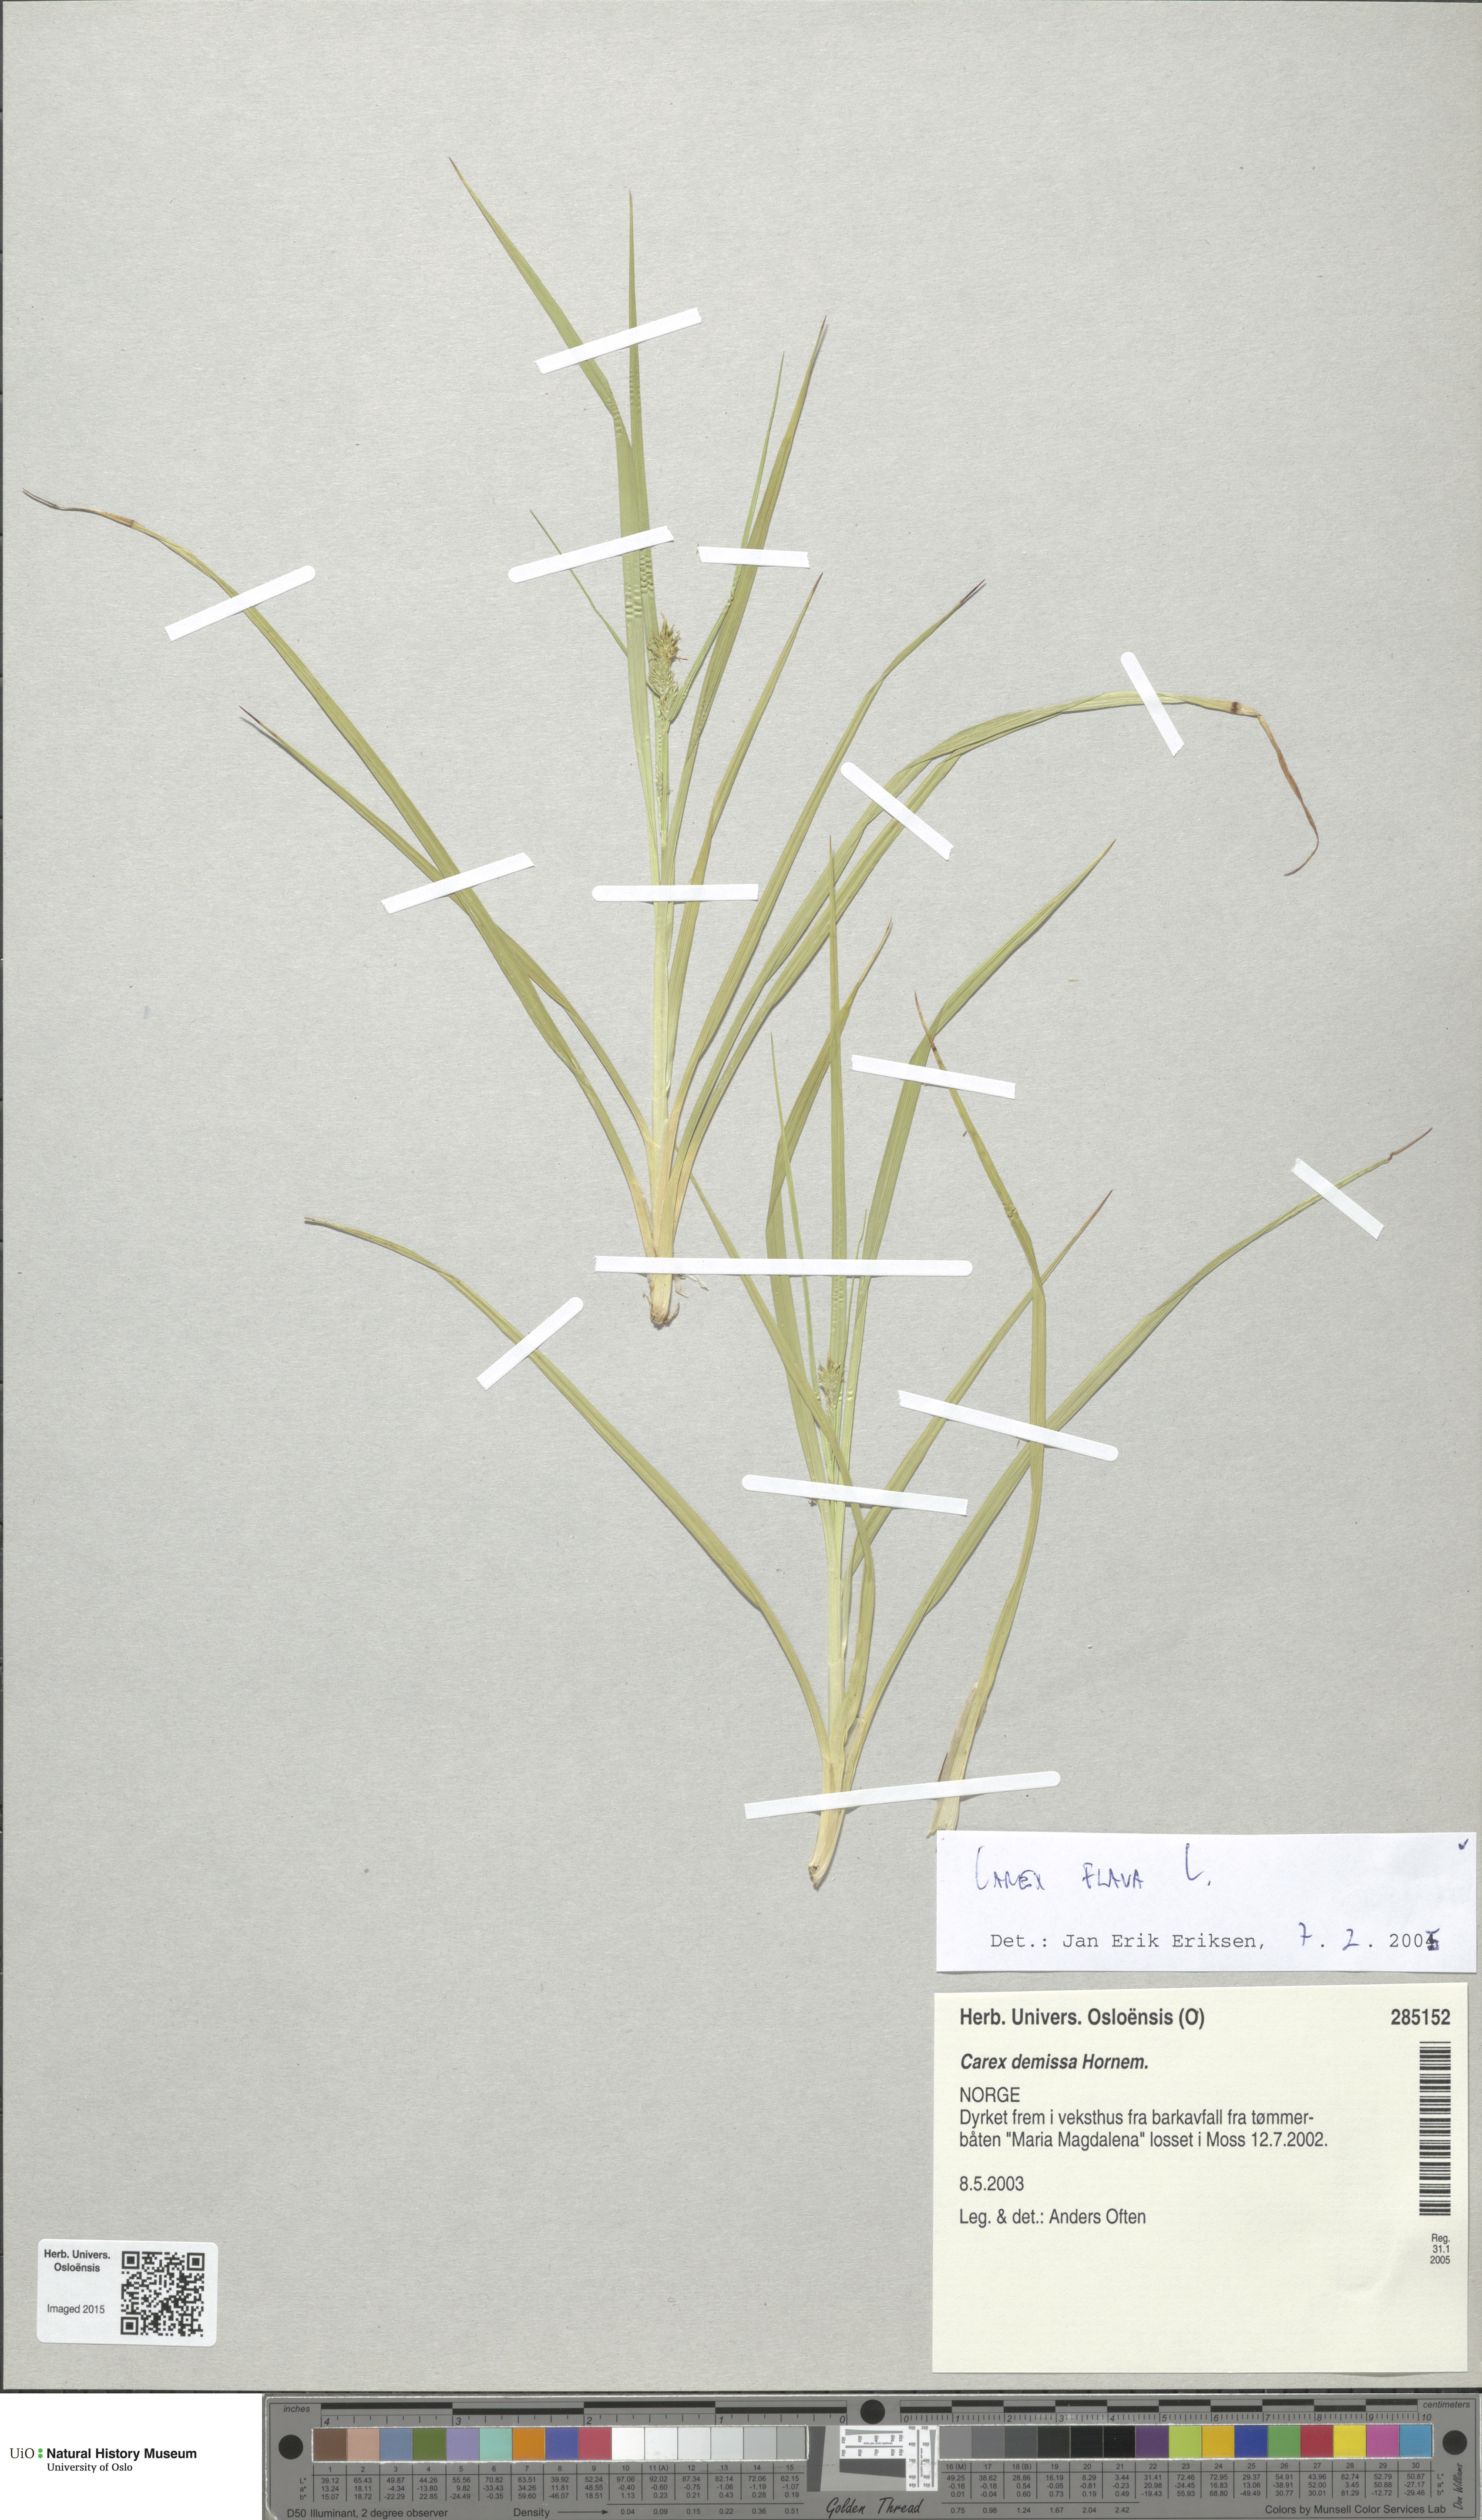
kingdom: Plantae
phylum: Tracheophyta
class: Liliopsida
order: Poales
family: Cyperaceae
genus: Carex
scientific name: Carex flava
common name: Large yellow-sedge
